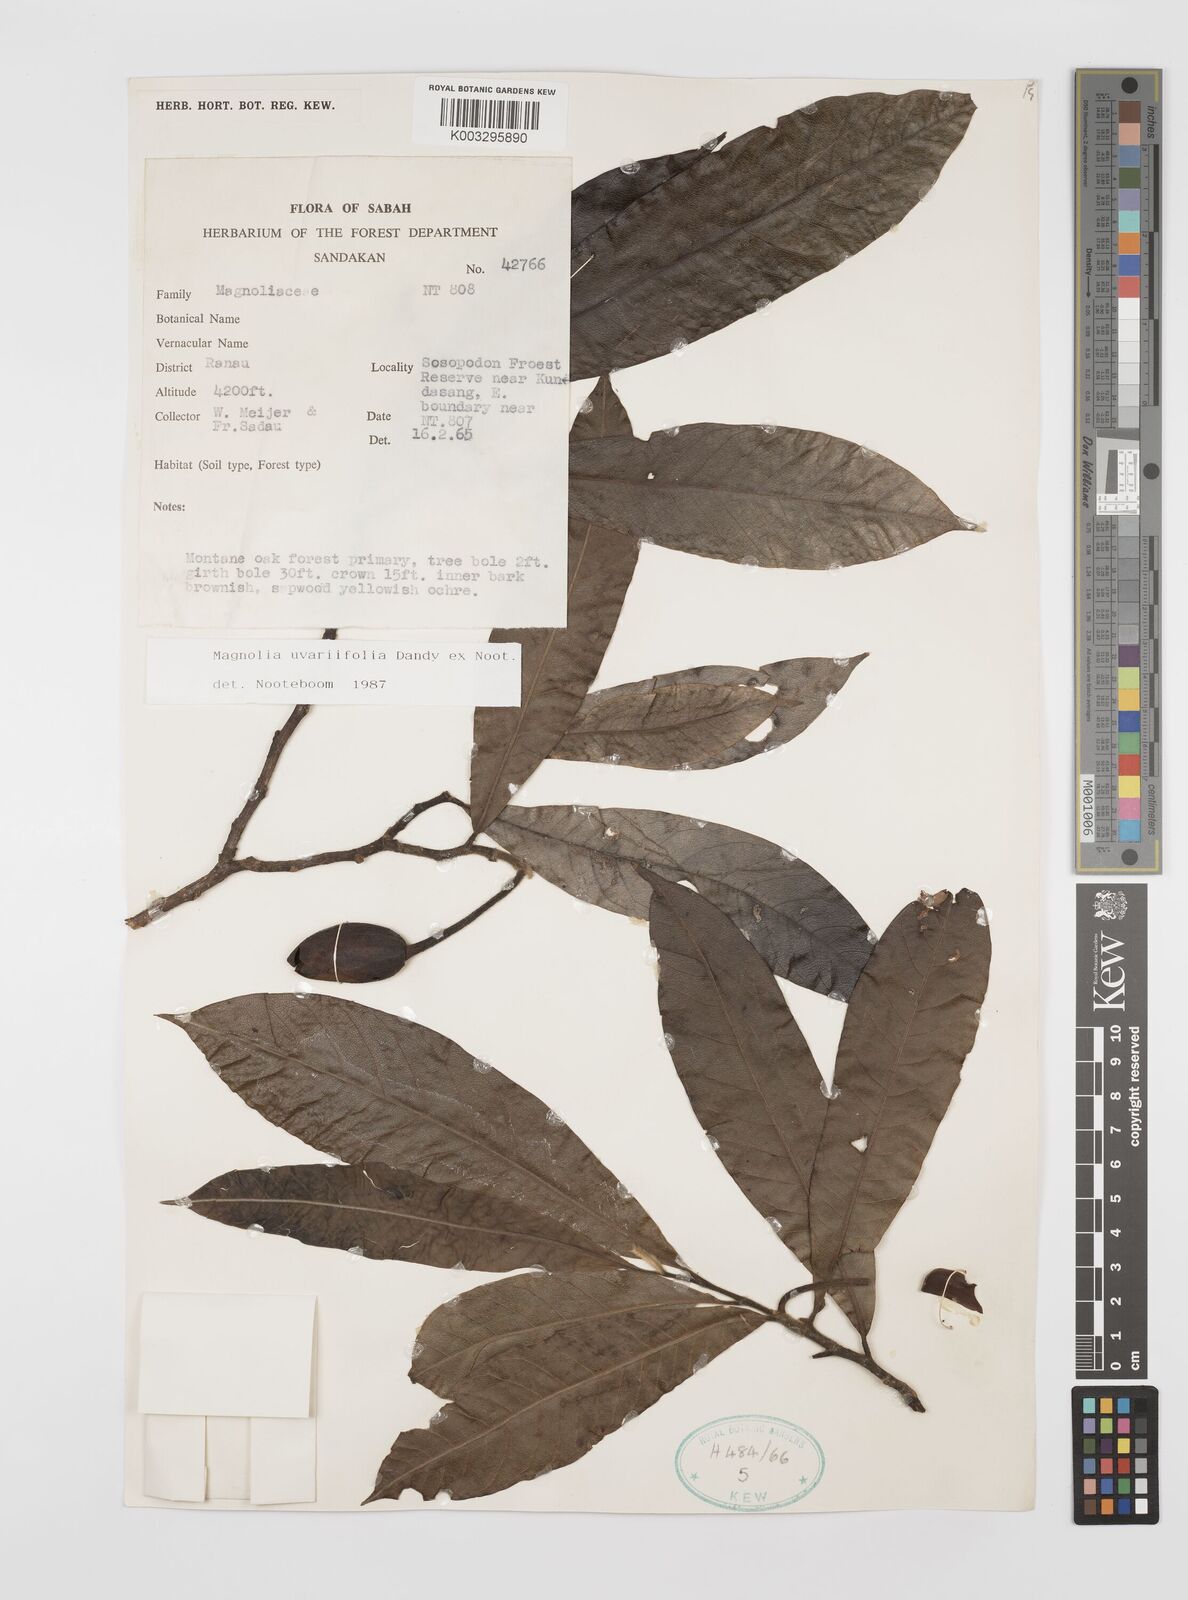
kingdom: Plantae
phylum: Tracheophyta
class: Magnoliopsida
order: Magnoliales
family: Magnoliaceae
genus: Magnolia
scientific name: Magnolia macklottii
